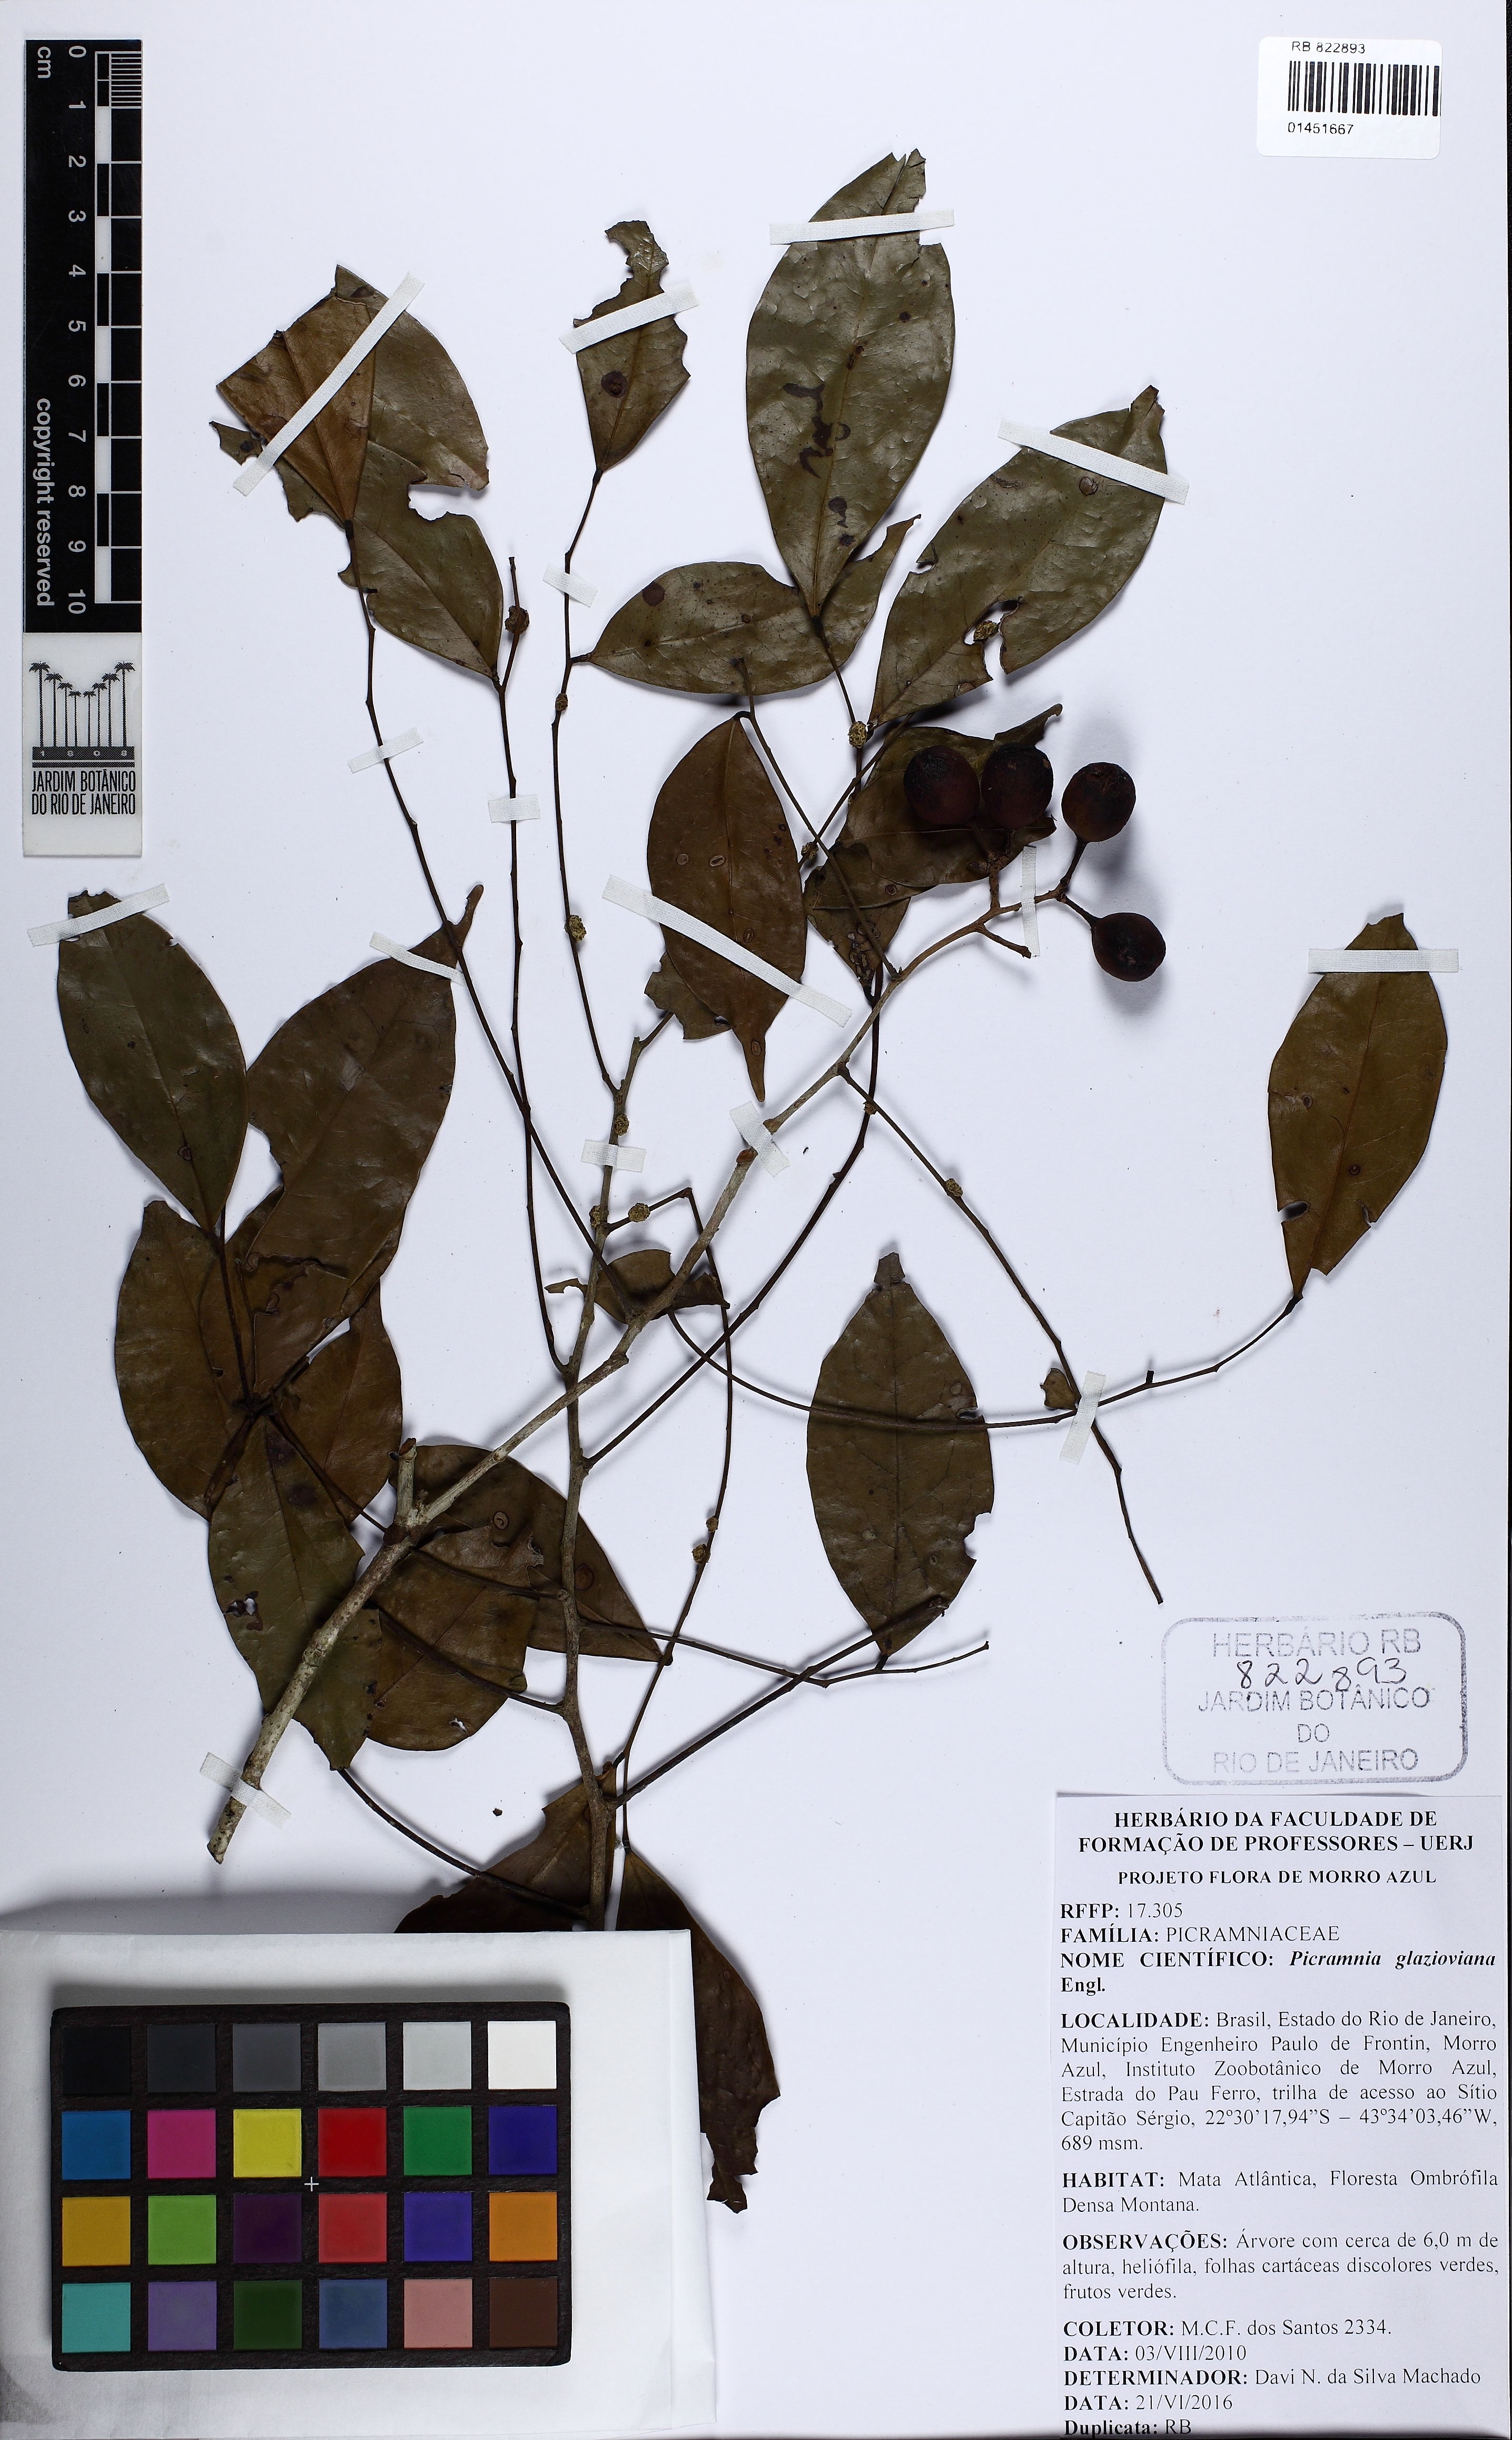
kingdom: Plantae
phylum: Tracheophyta
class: Magnoliopsida
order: Picramniales
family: Picramniaceae
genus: Picramnia
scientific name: Picramnia glazioviana
